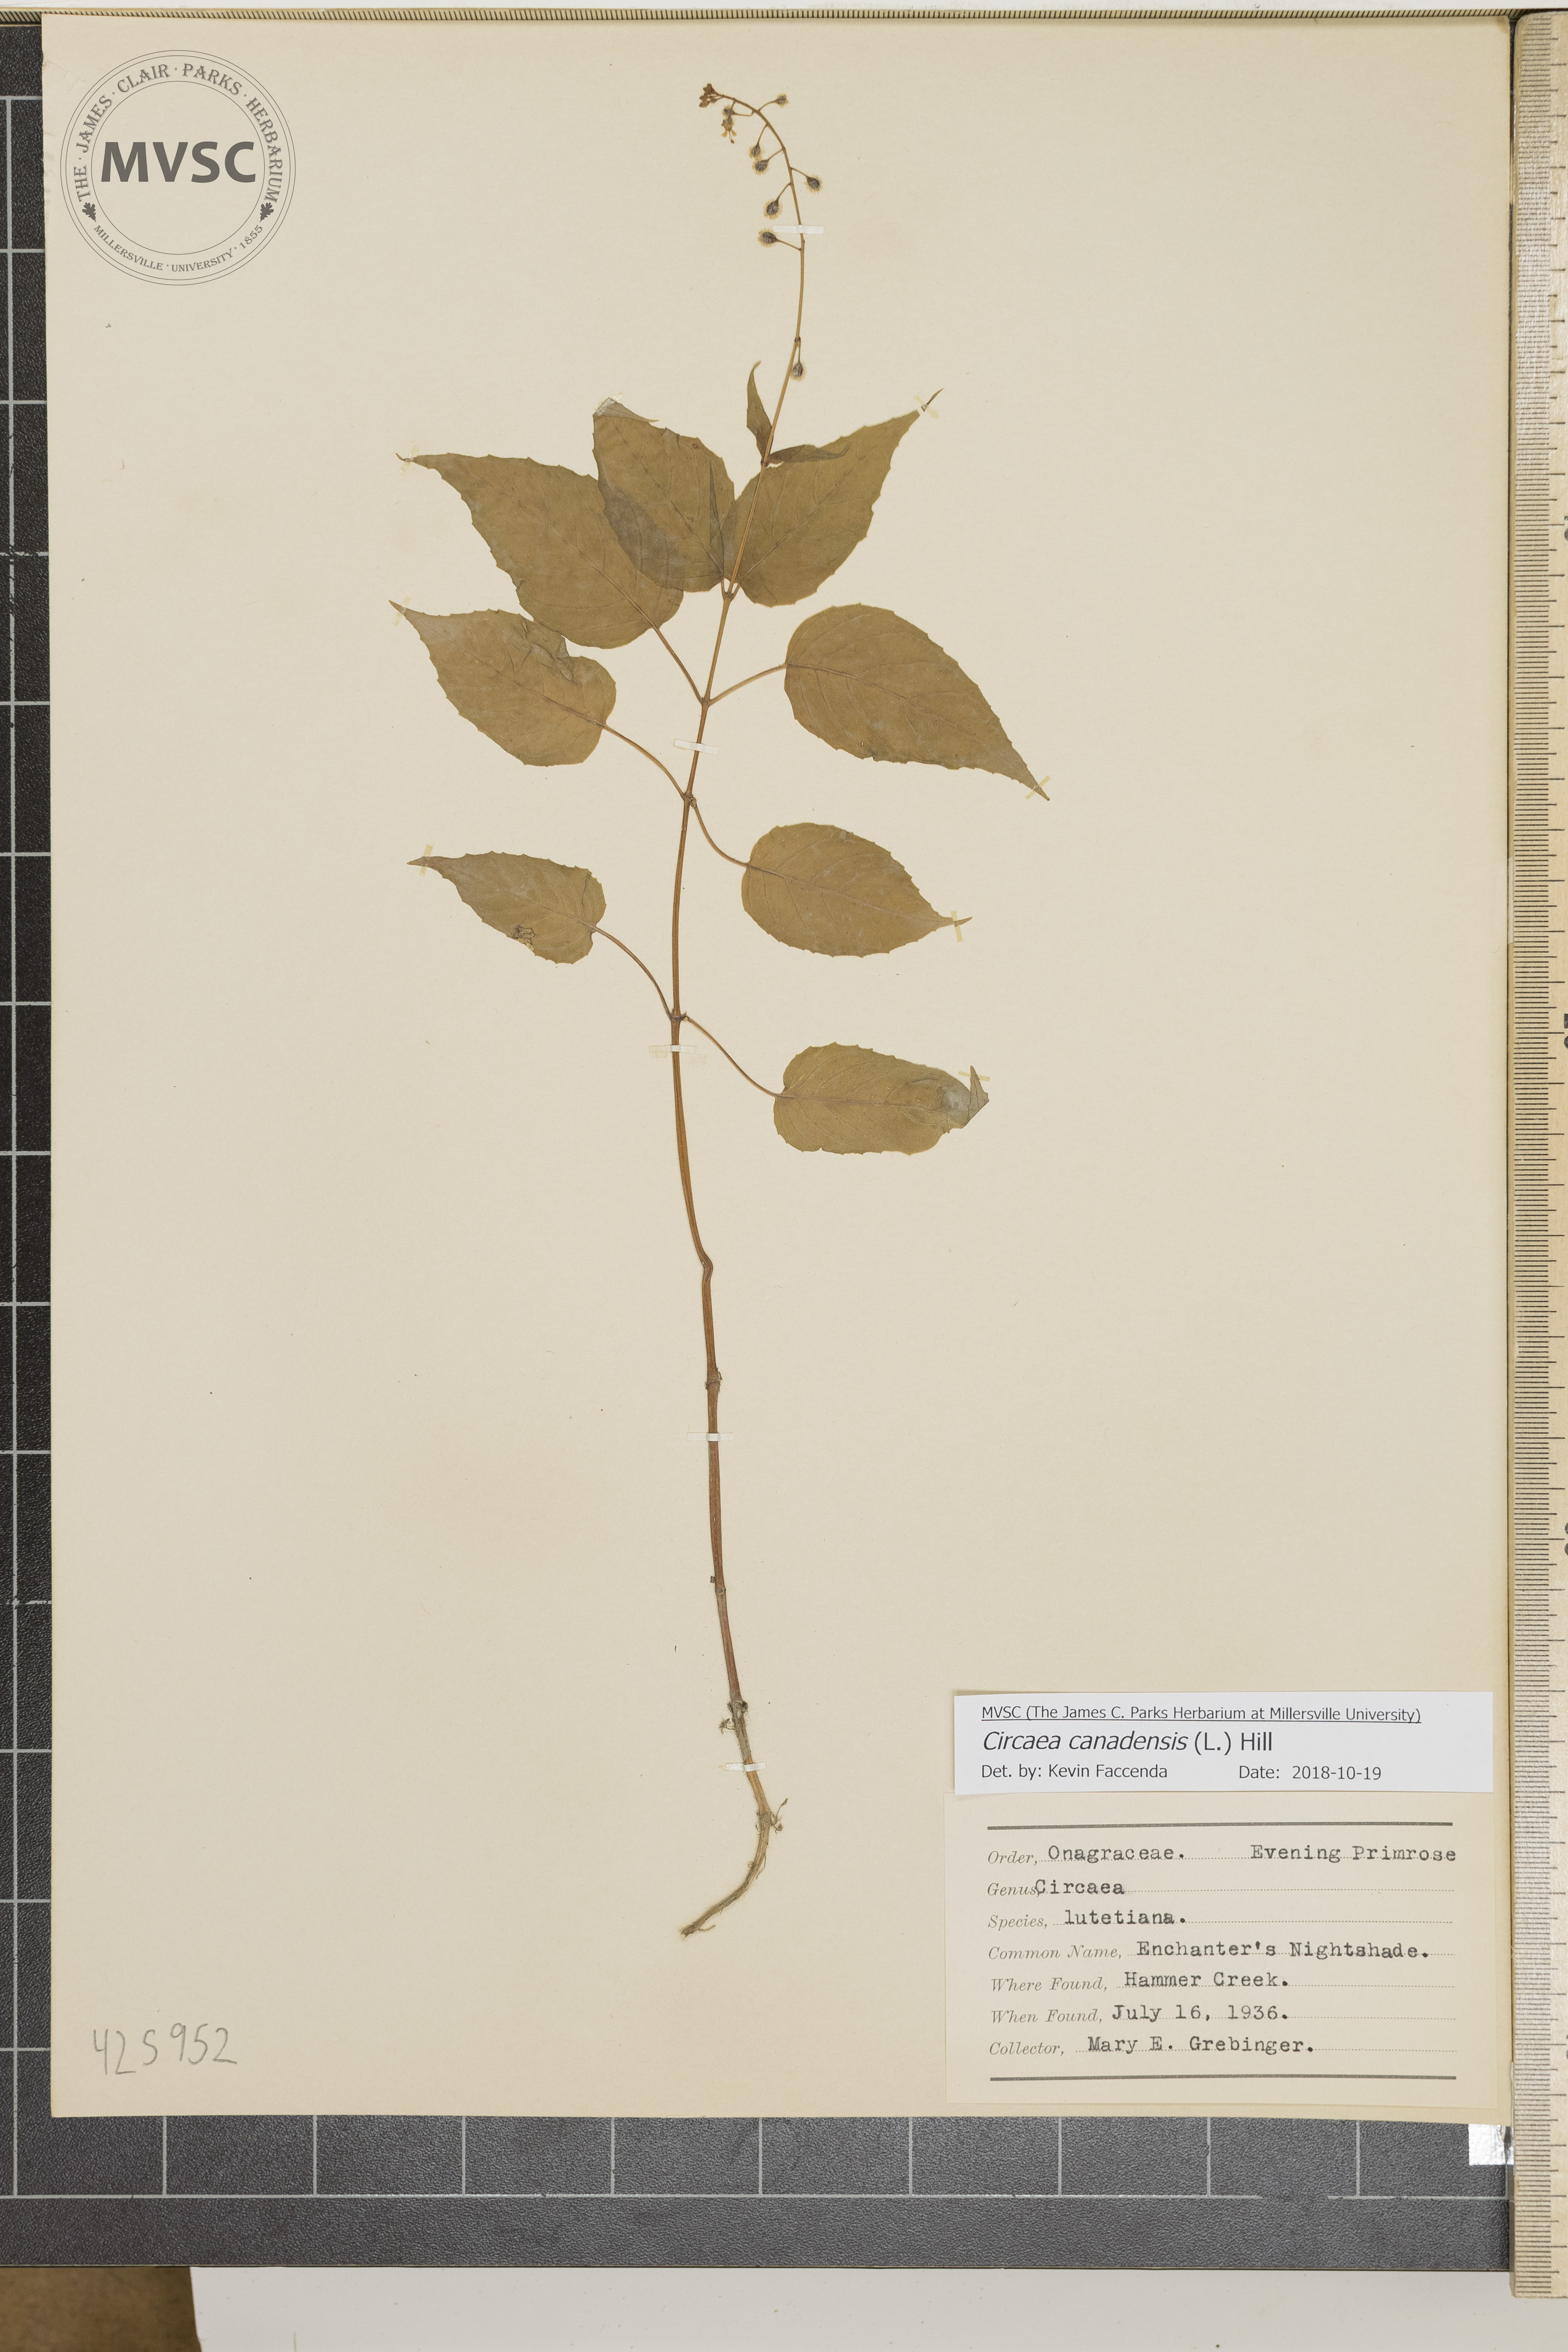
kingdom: Plantae
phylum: Tracheophyta
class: Magnoliopsida
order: Myrtales
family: Onagraceae
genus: Circaea
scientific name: Circaea canadensis
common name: Enchanter's nightshade
